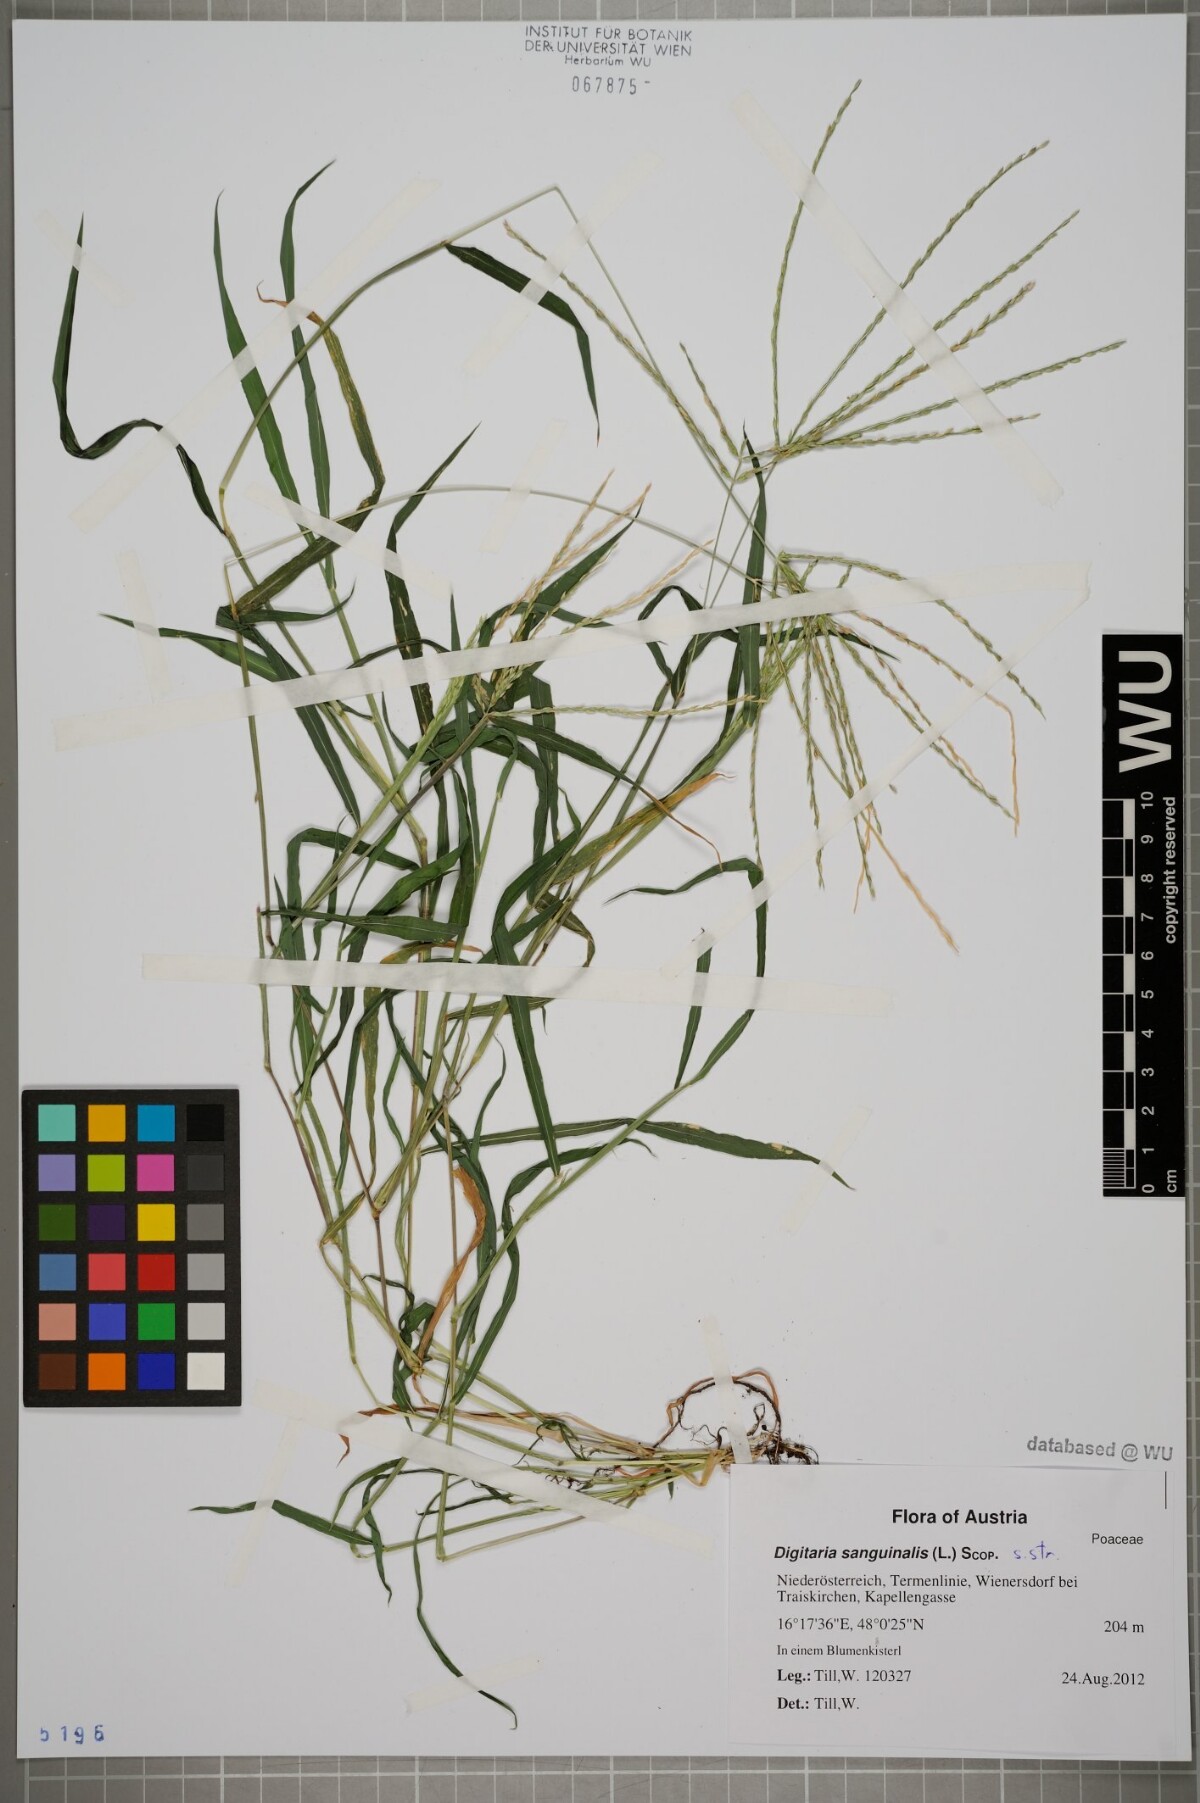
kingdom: Plantae
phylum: Tracheophyta
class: Liliopsida
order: Poales
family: Poaceae
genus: Digitaria
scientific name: Digitaria sanguinalis
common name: Hairy crabgrass
